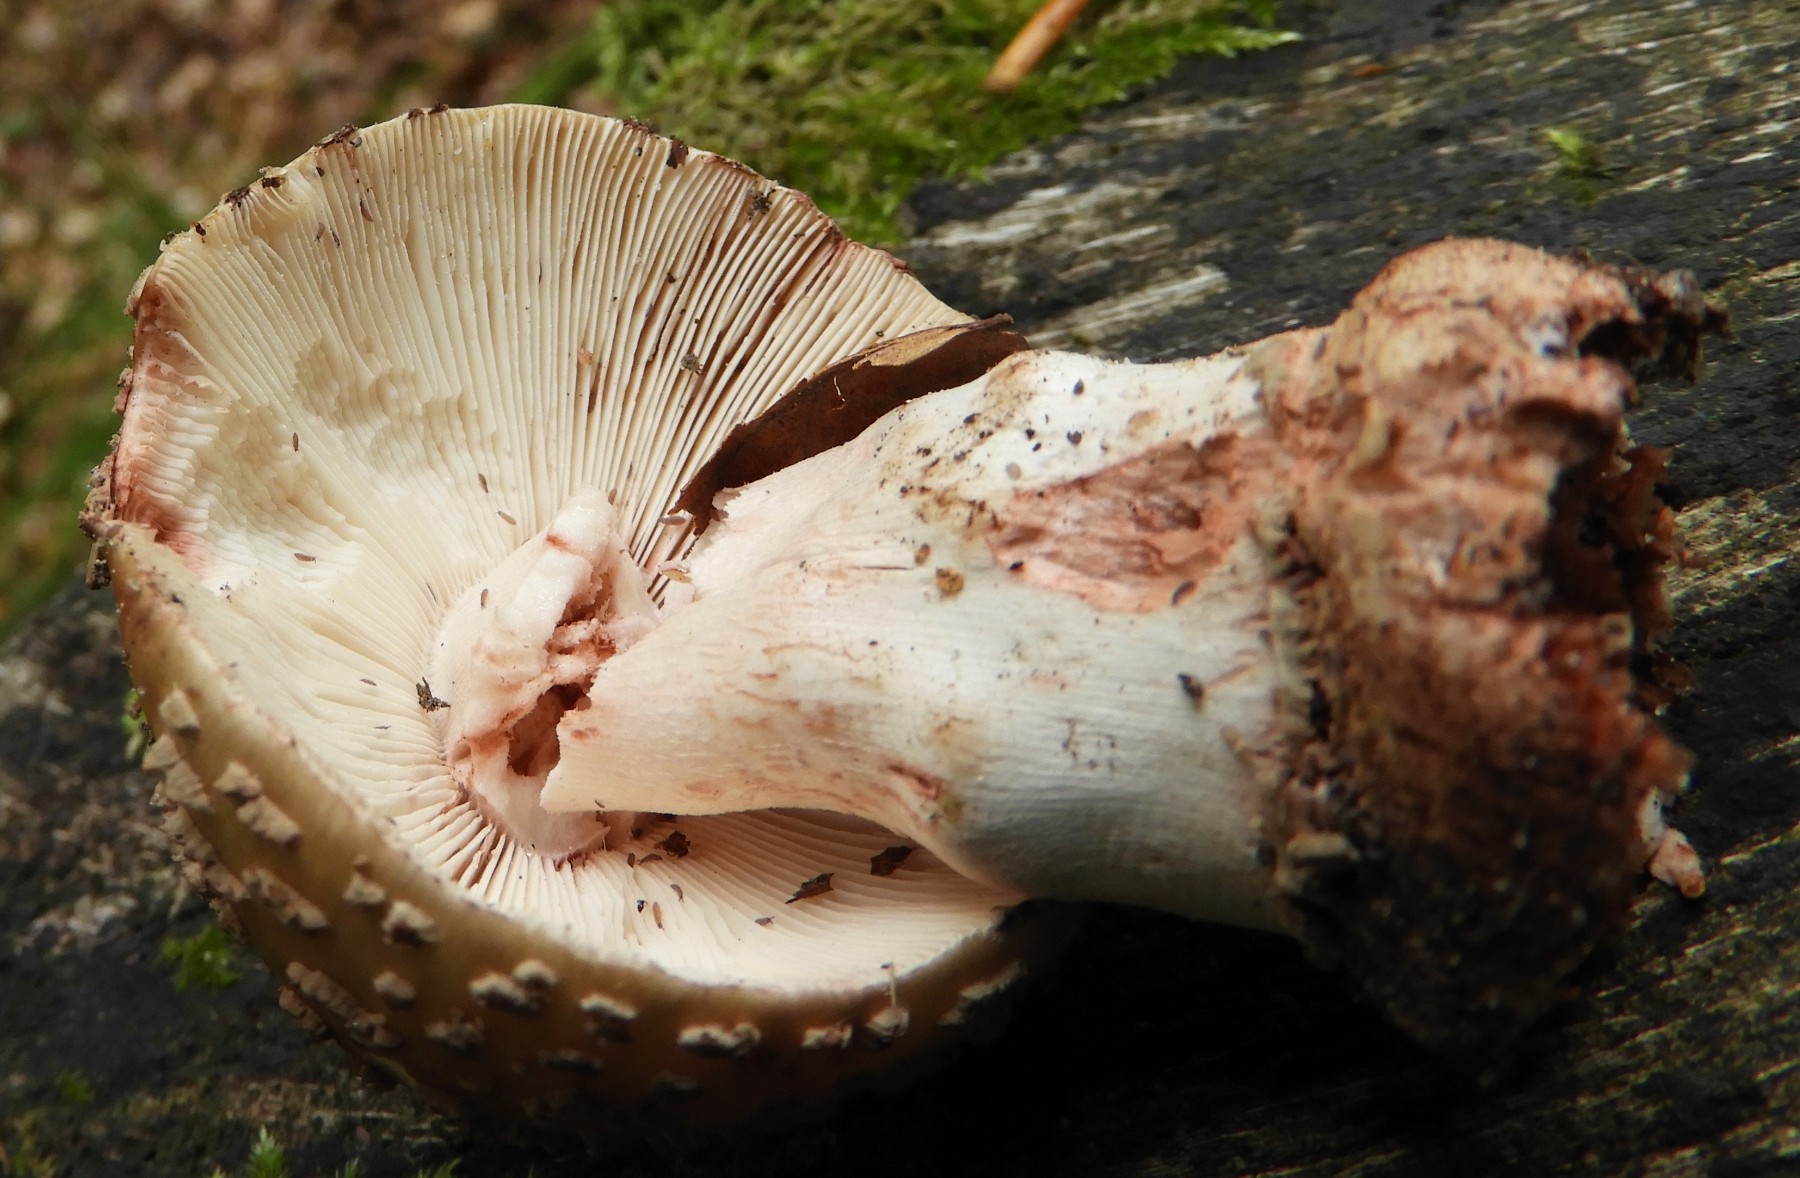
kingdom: Fungi
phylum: Basidiomycota
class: Agaricomycetes
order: Agaricales
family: Amanitaceae
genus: Amanita
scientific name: Amanita rubescens
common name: rødmende fluesvamp
